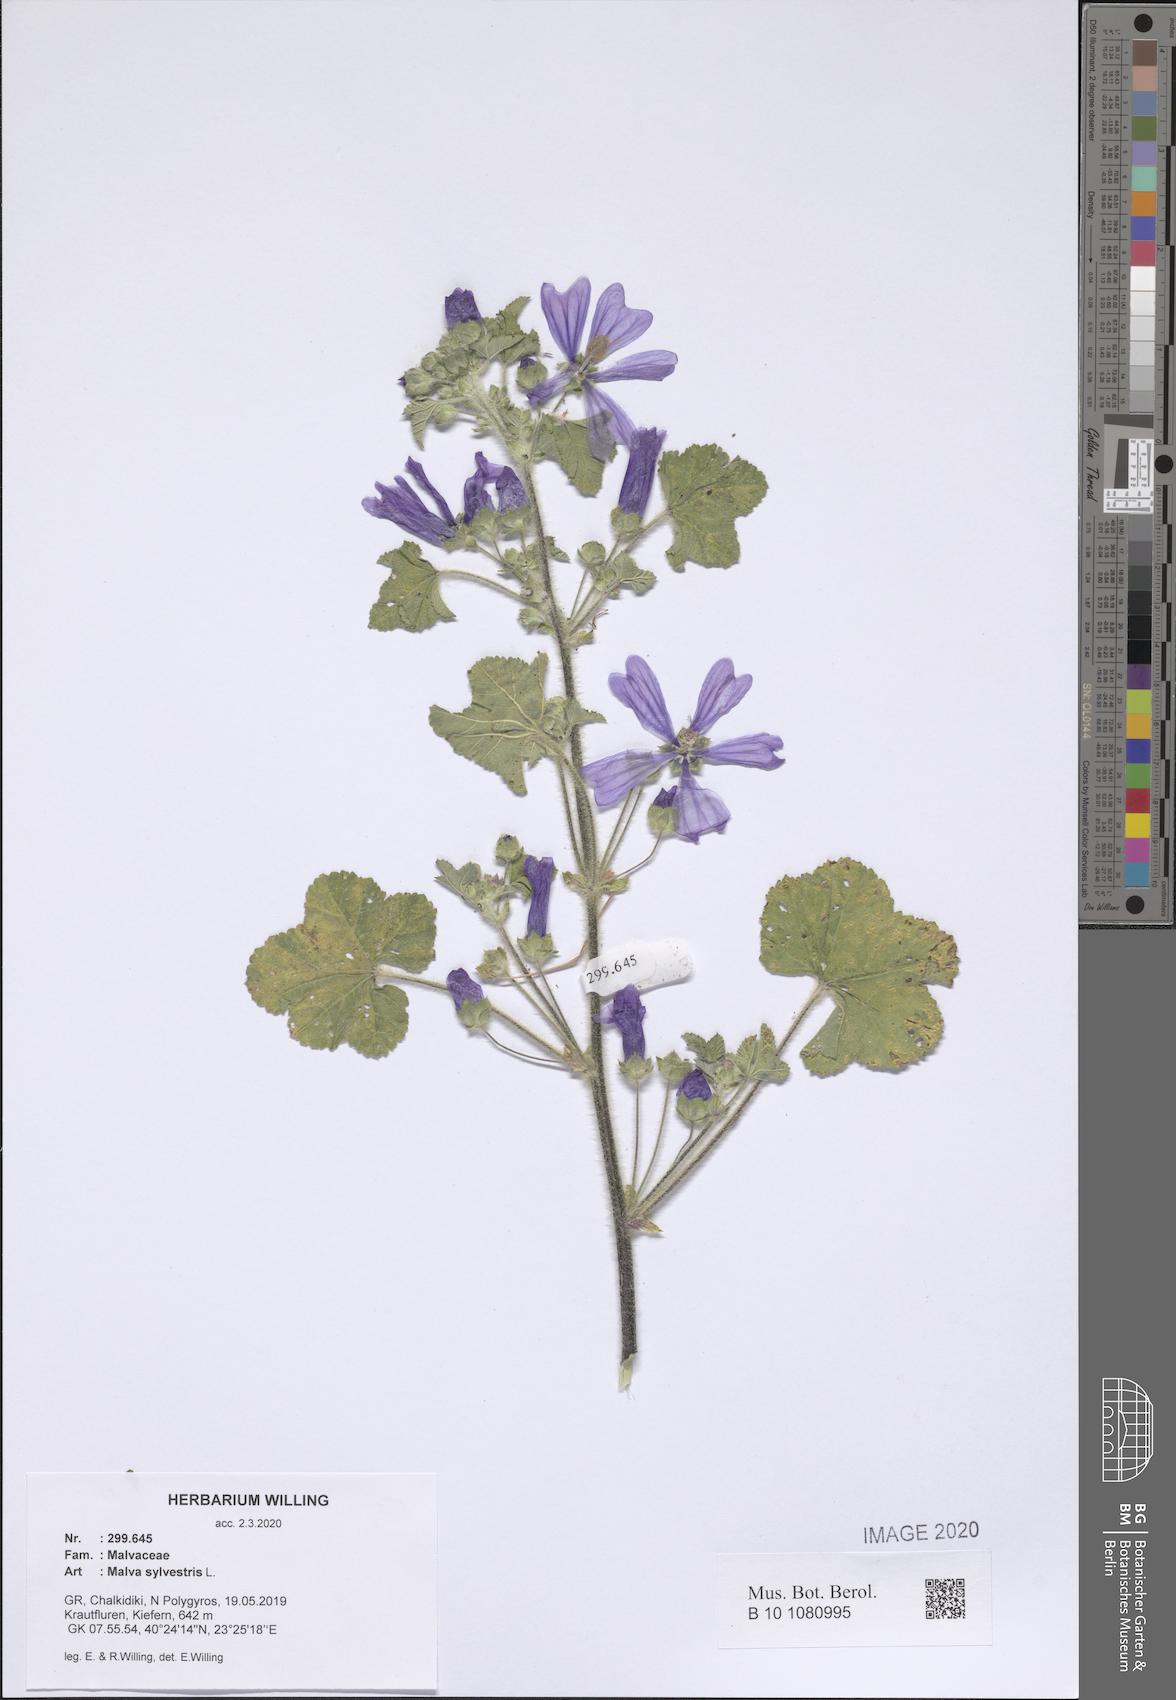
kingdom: Plantae
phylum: Tracheophyta
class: Magnoliopsida
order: Malvales
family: Malvaceae
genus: Malva
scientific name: Malva sylvestris
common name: Common mallow
